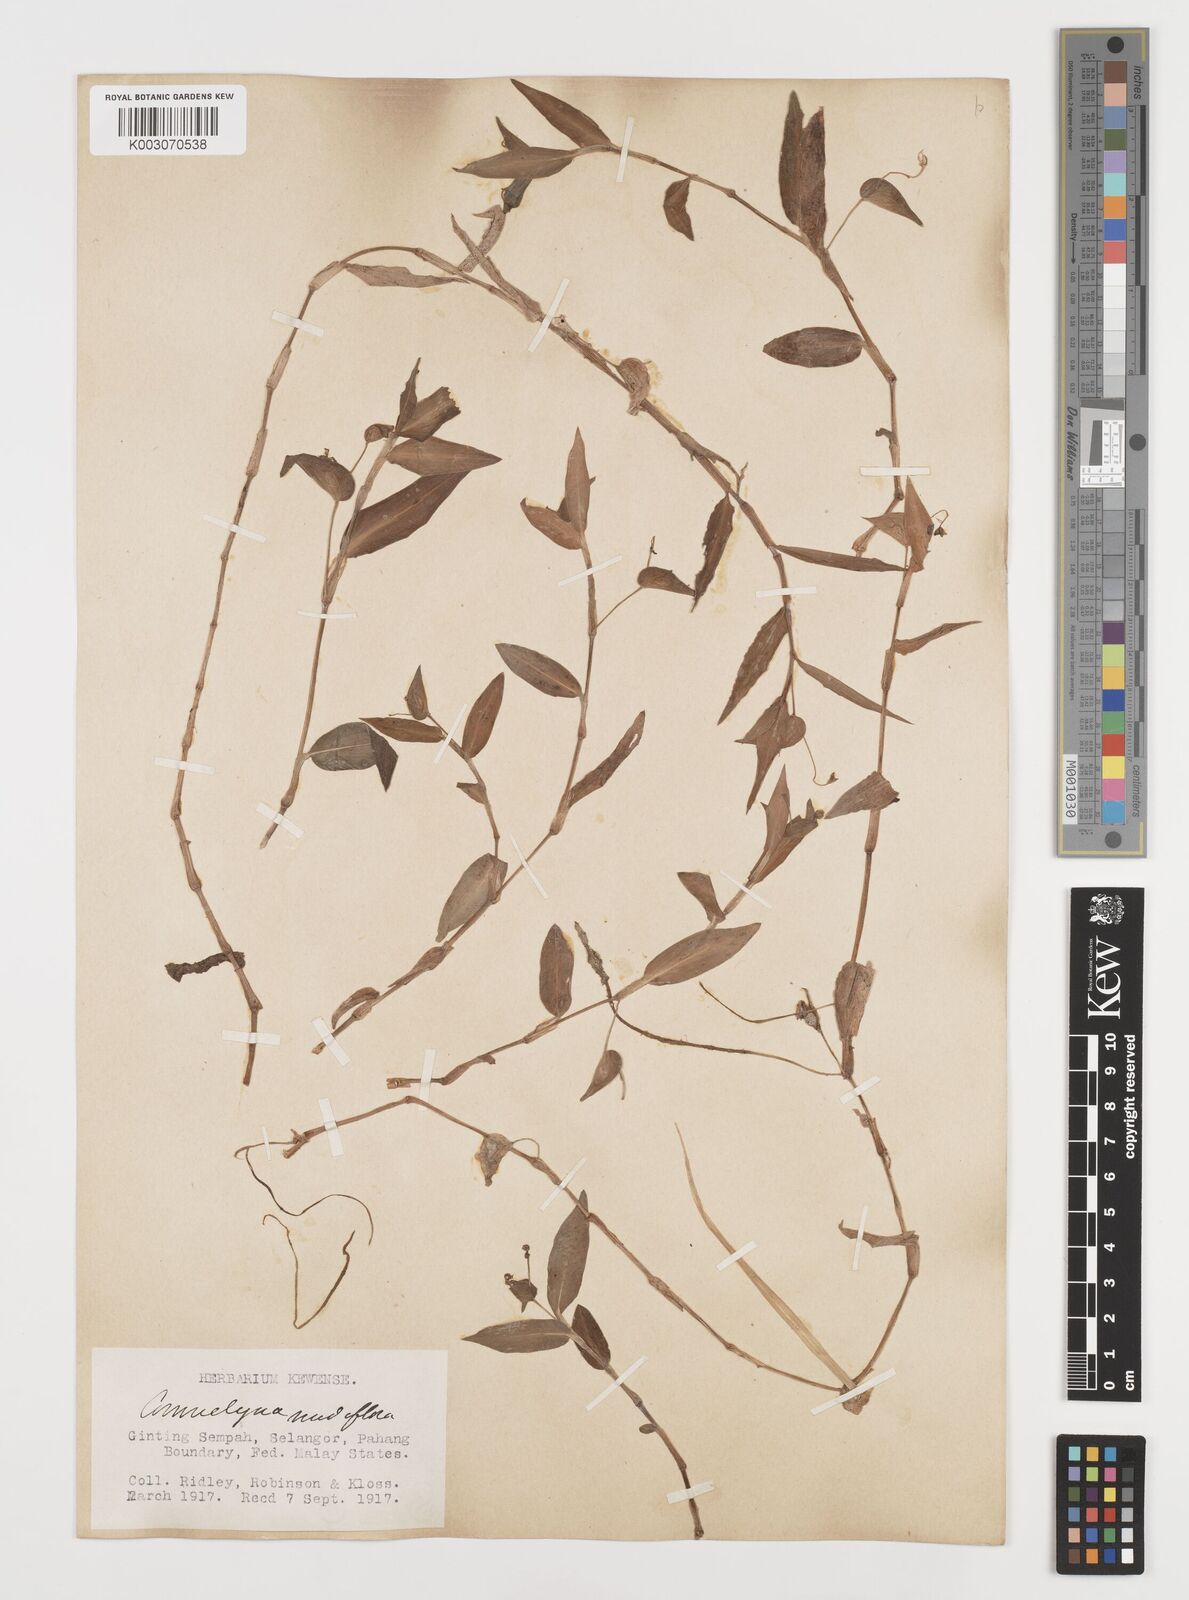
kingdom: Plantae
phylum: Tracheophyta
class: Liliopsida
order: Commelinales
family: Commelinaceae
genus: Commelina
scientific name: Commelina clavata
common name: Willow leaved dayflower
